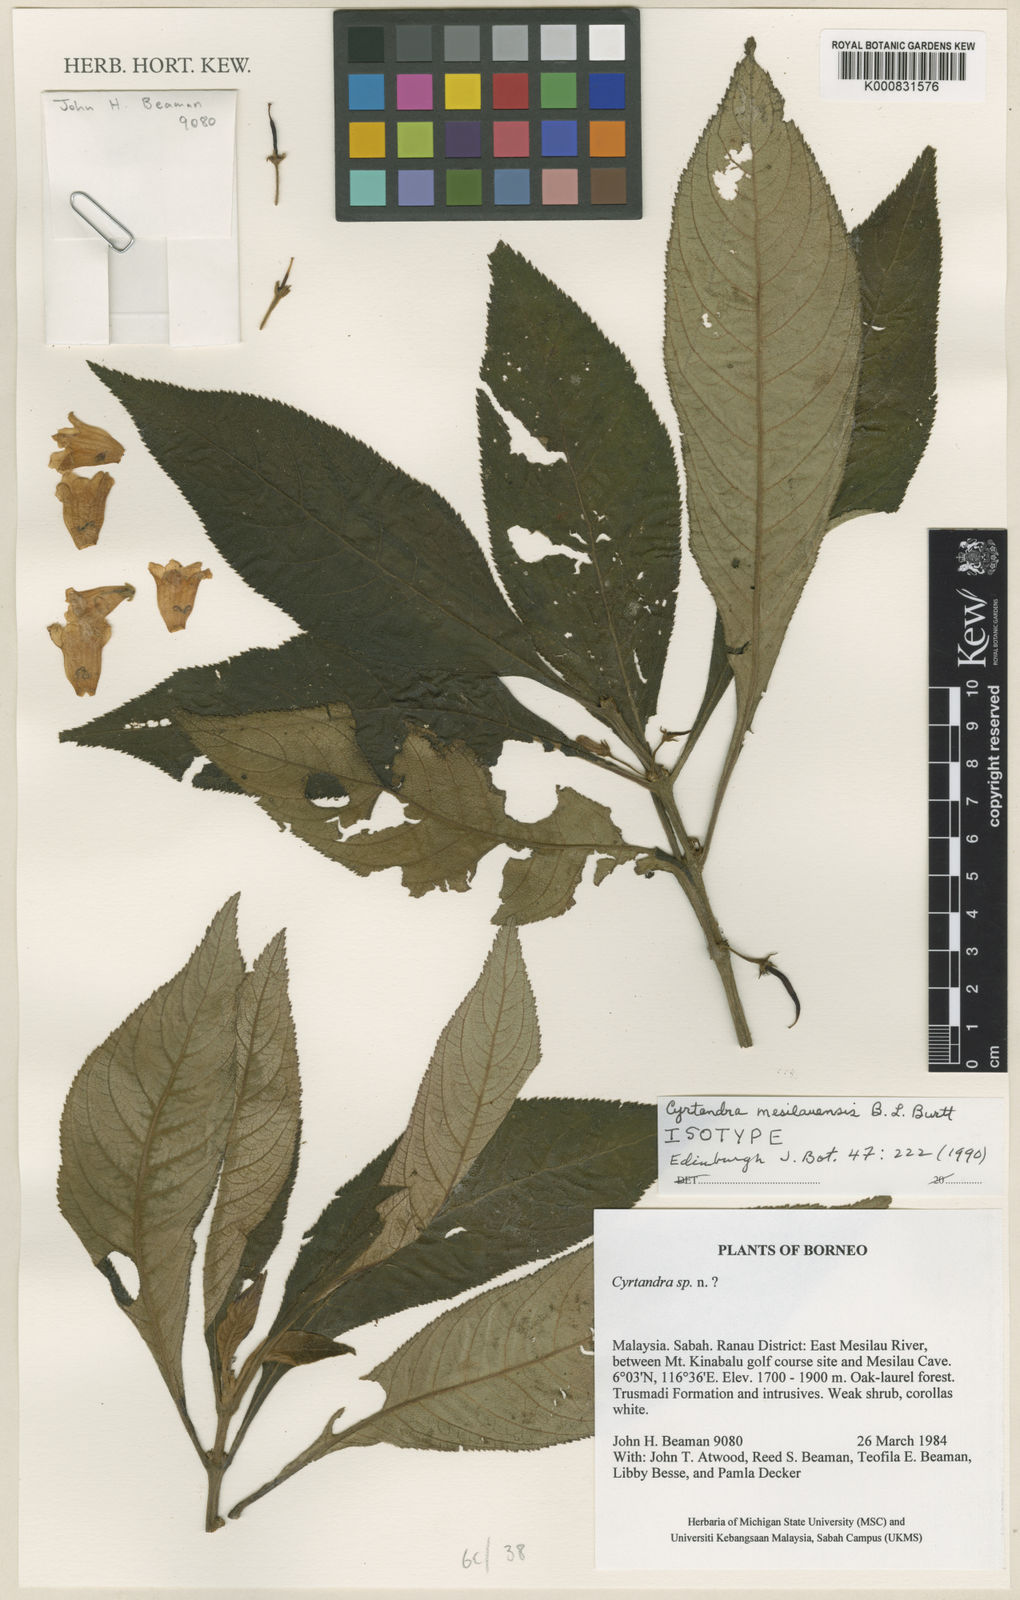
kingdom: Plantae
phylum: Tracheophyta
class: Magnoliopsida
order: Lamiales
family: Gesneriaceae
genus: Cyrtandra
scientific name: Cyrtandra mesilauensis
